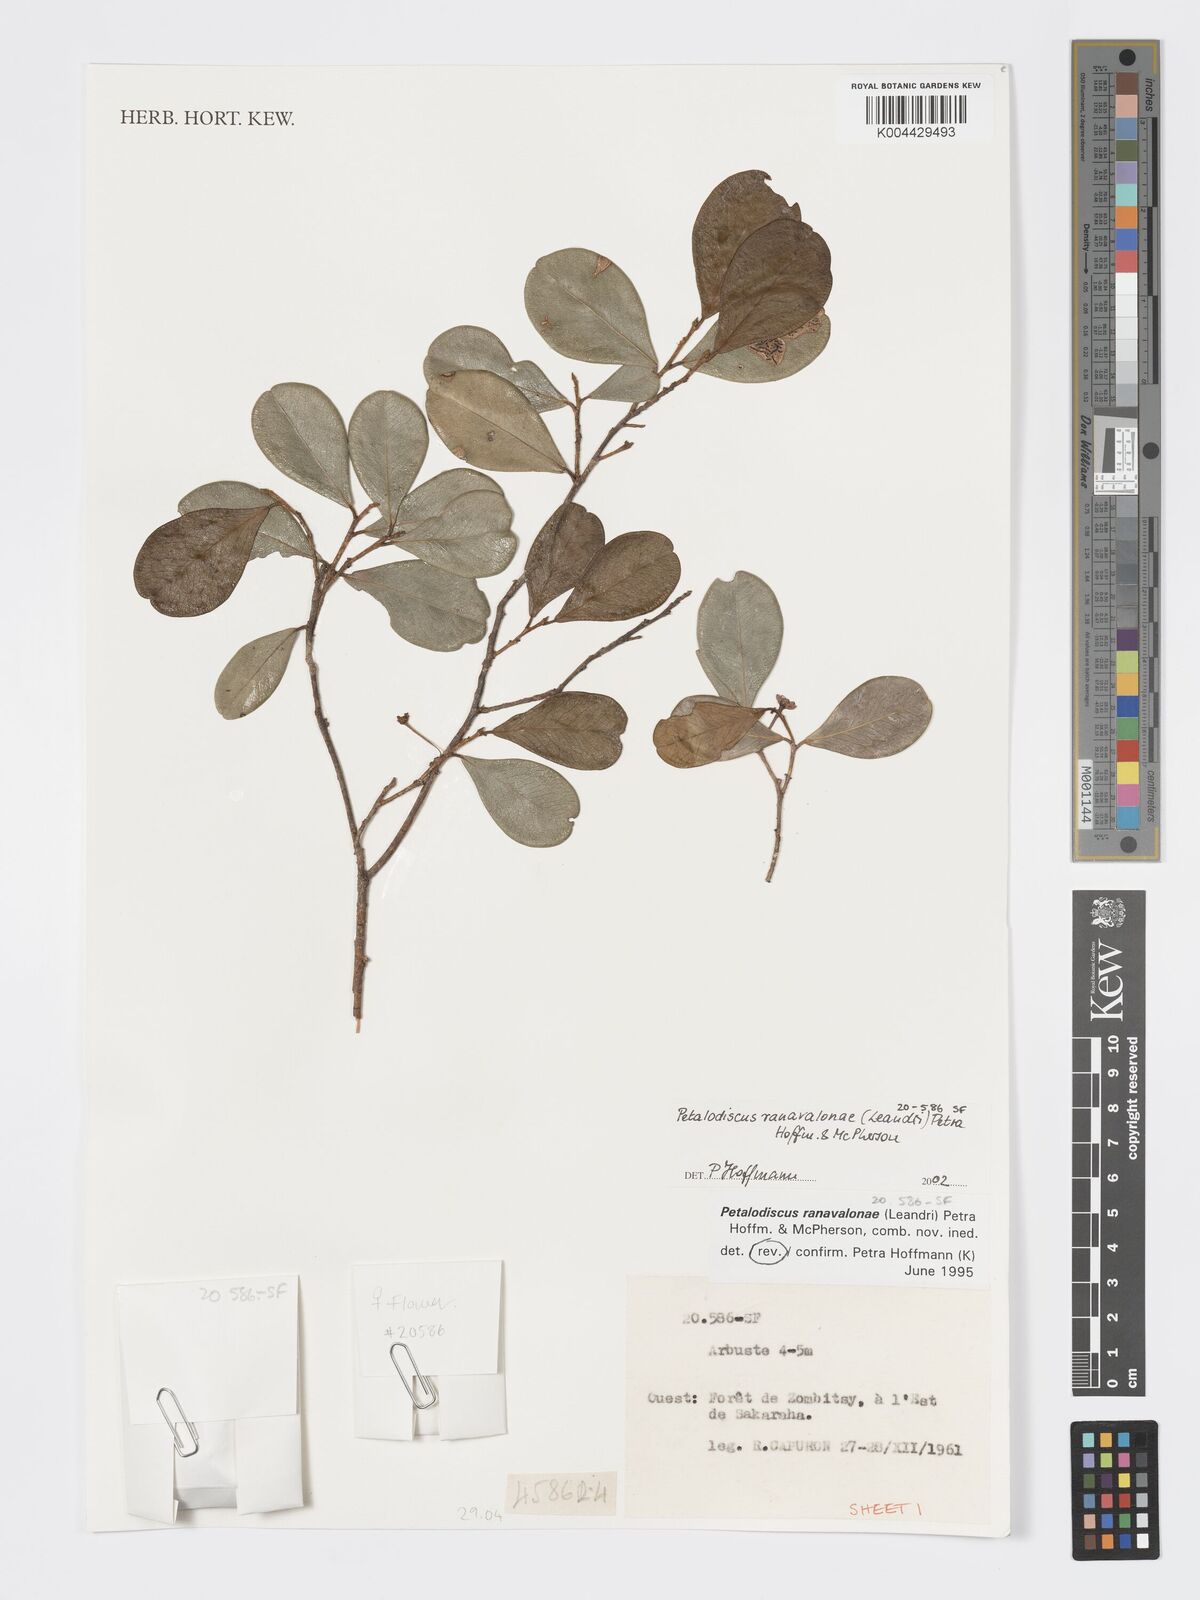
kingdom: Plantae
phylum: Tracheophyta
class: Magnoliopsida
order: Malpighiales
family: Phyllanthaceae
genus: Wielandia
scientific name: Wielandia ranavalonae
